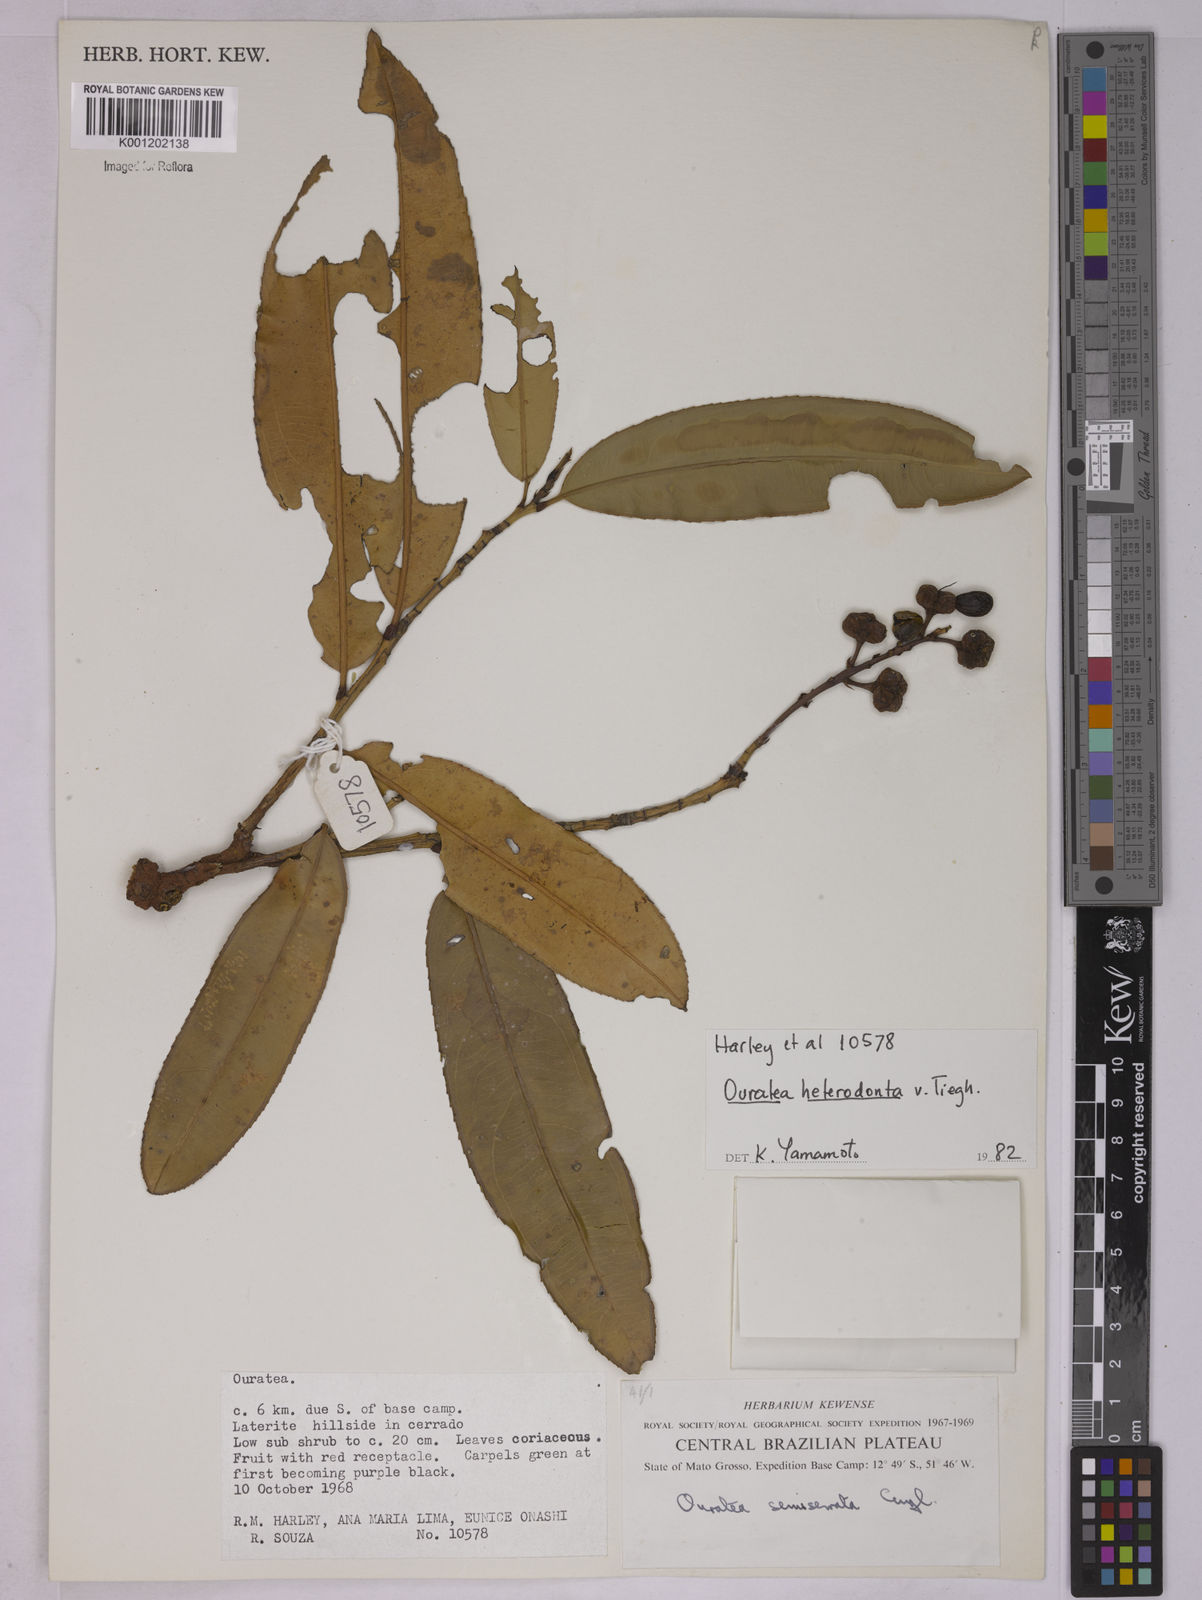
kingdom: Plantae
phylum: Tracheophyta
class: Magnoliopsida
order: Malpighiales
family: Ochnaceae
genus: Ouratea
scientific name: Ouratea crassifolia
